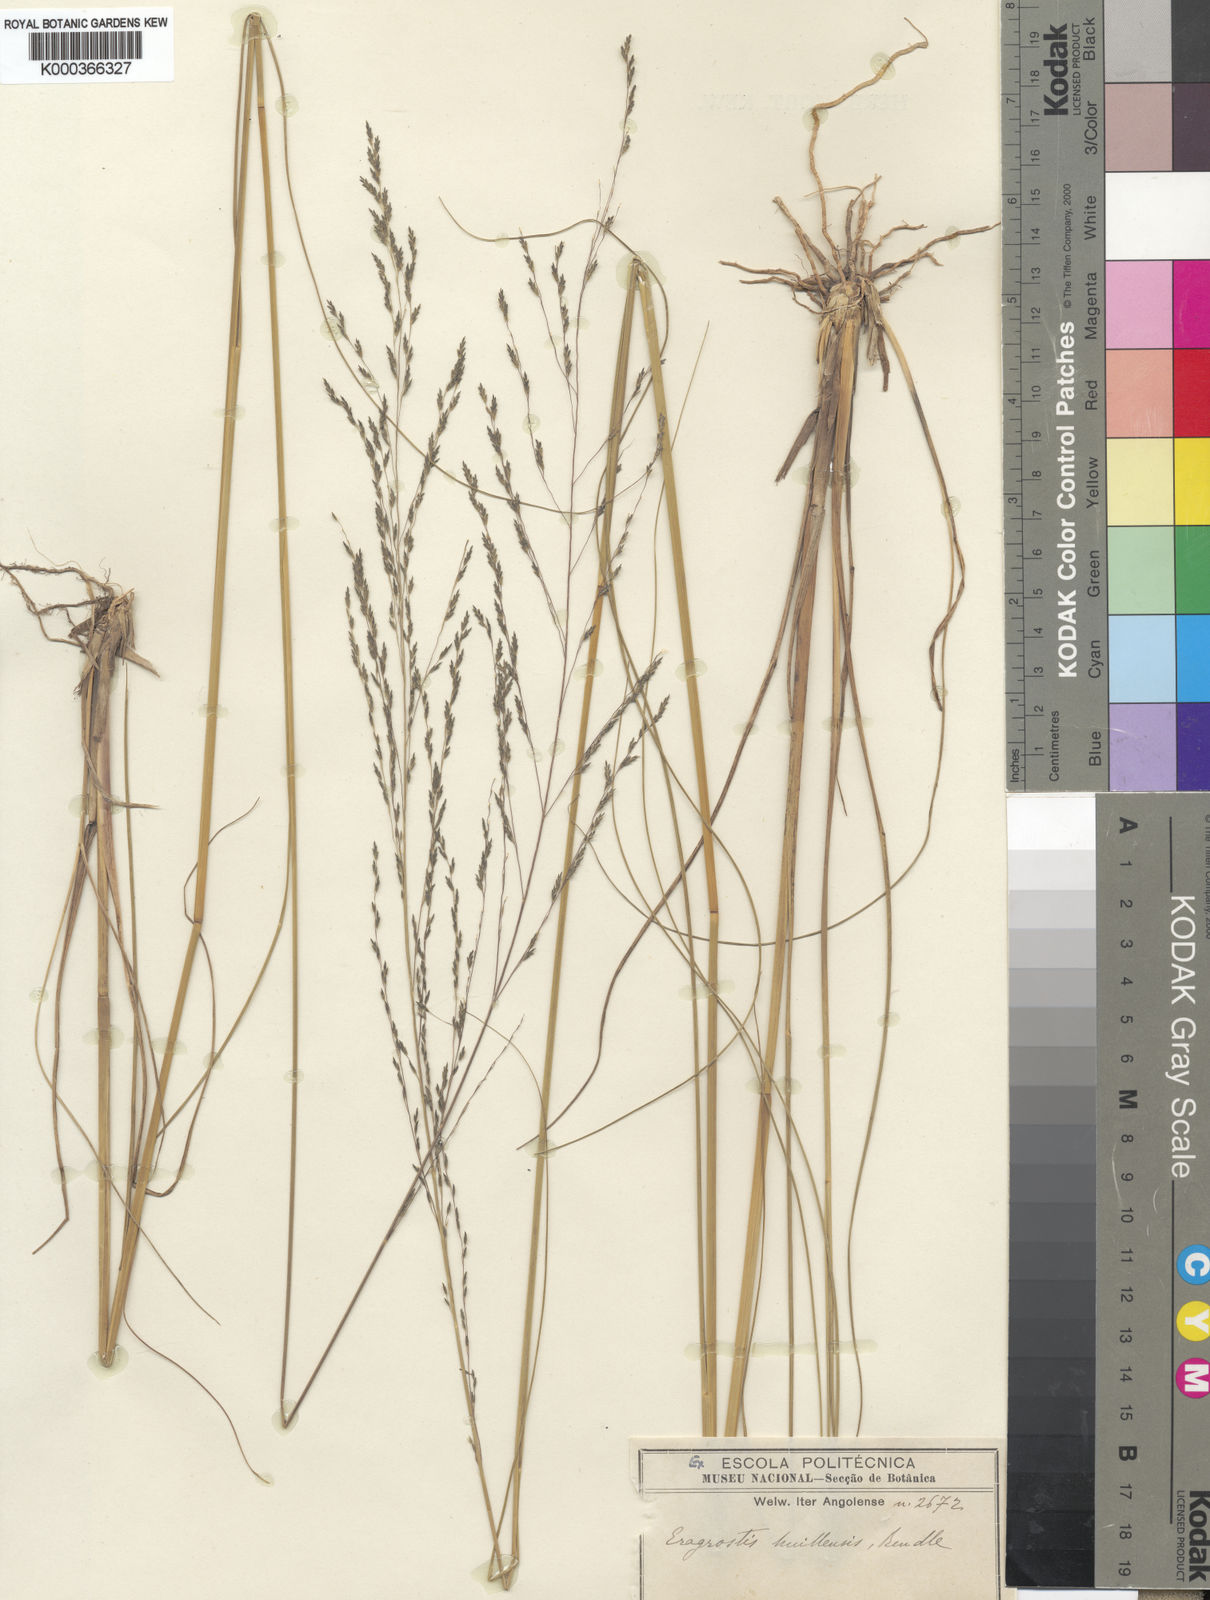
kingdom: Plantae
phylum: Tracheophyta
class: Liliopsida
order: Poales
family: Poaceae
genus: Eragrostis
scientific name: Eragrostis curvula
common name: African love-grass
